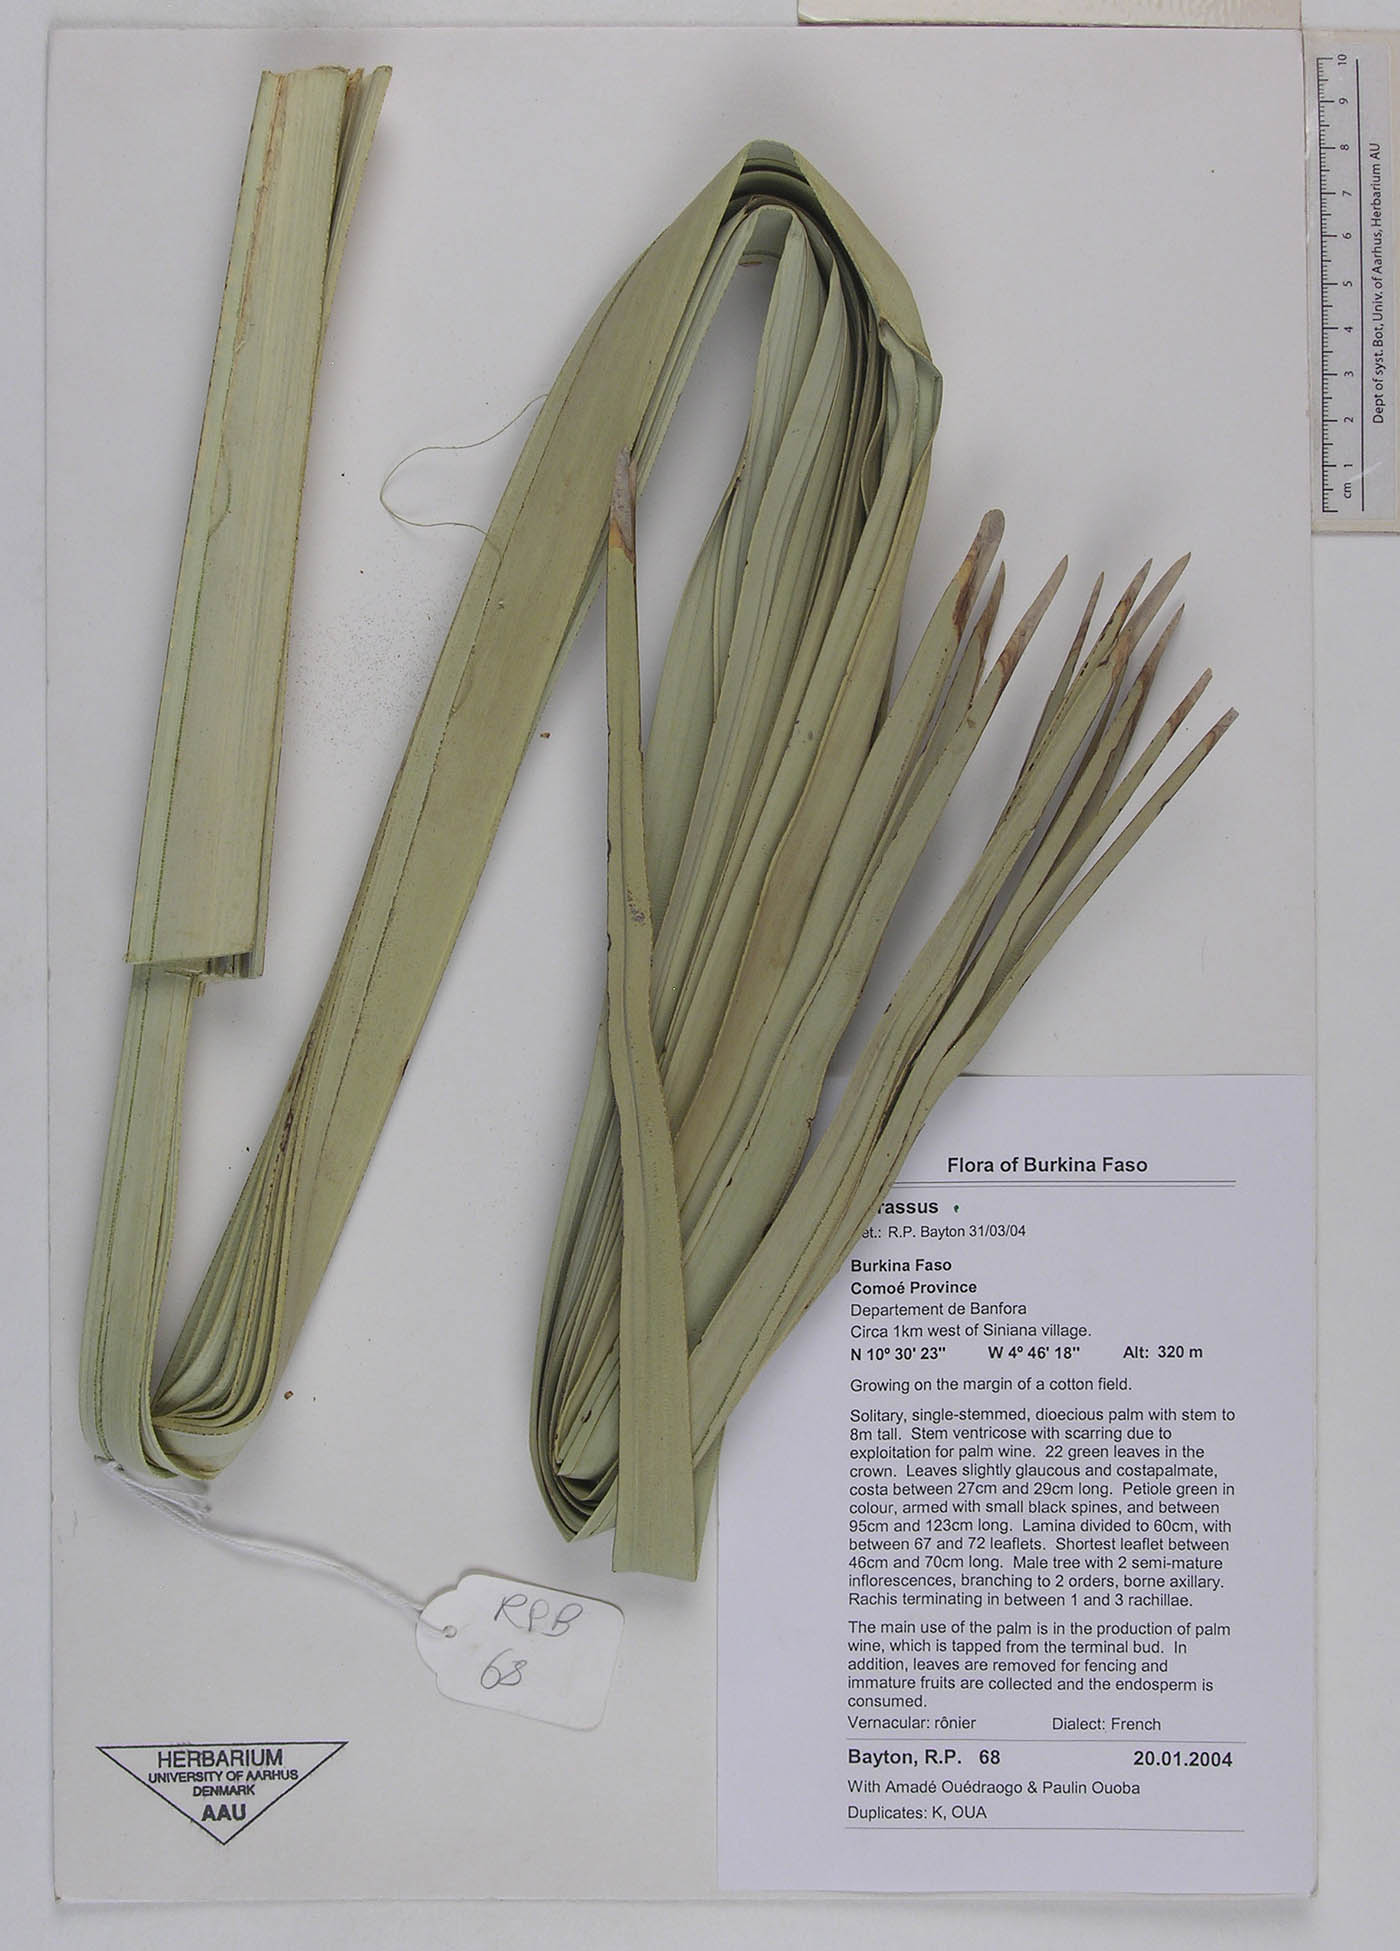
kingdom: Plantae
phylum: Tracheophyta
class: Liliopsida
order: Arecales
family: Arecaceae
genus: Borassus
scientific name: Borassus
